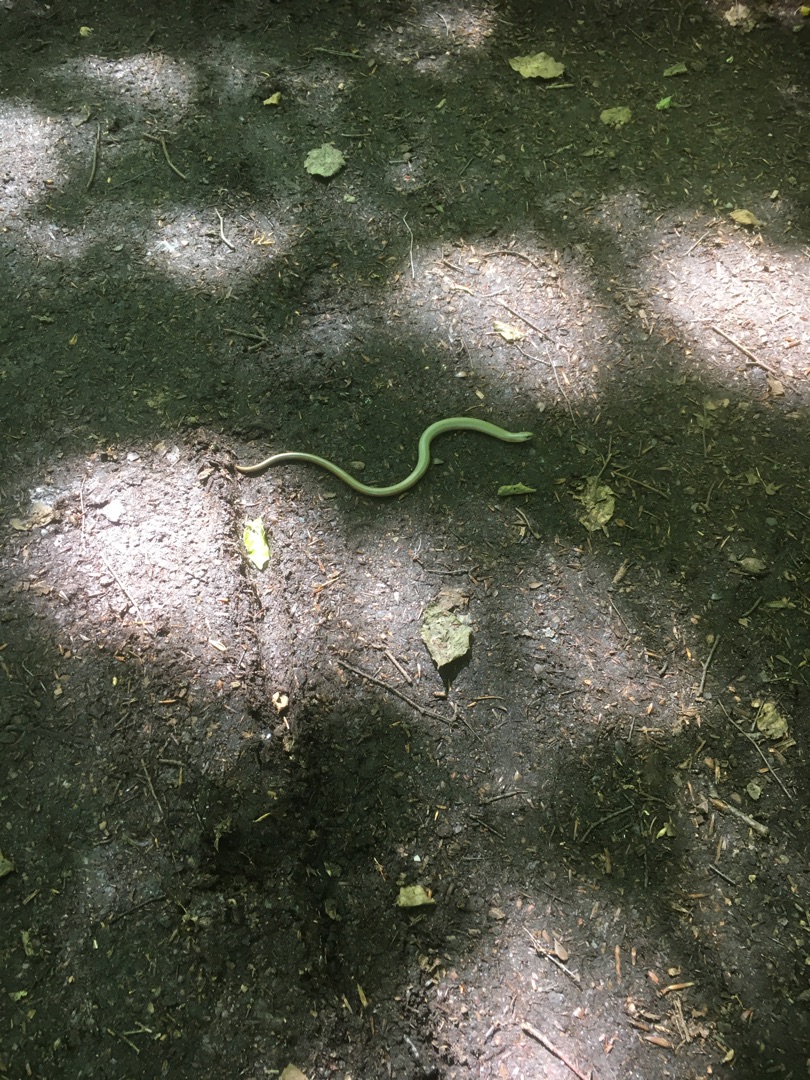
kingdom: Animalia
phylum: Chordata
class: Squamata
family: Anguidae
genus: Anguis
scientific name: Anguis fragilis
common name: Stålorm
